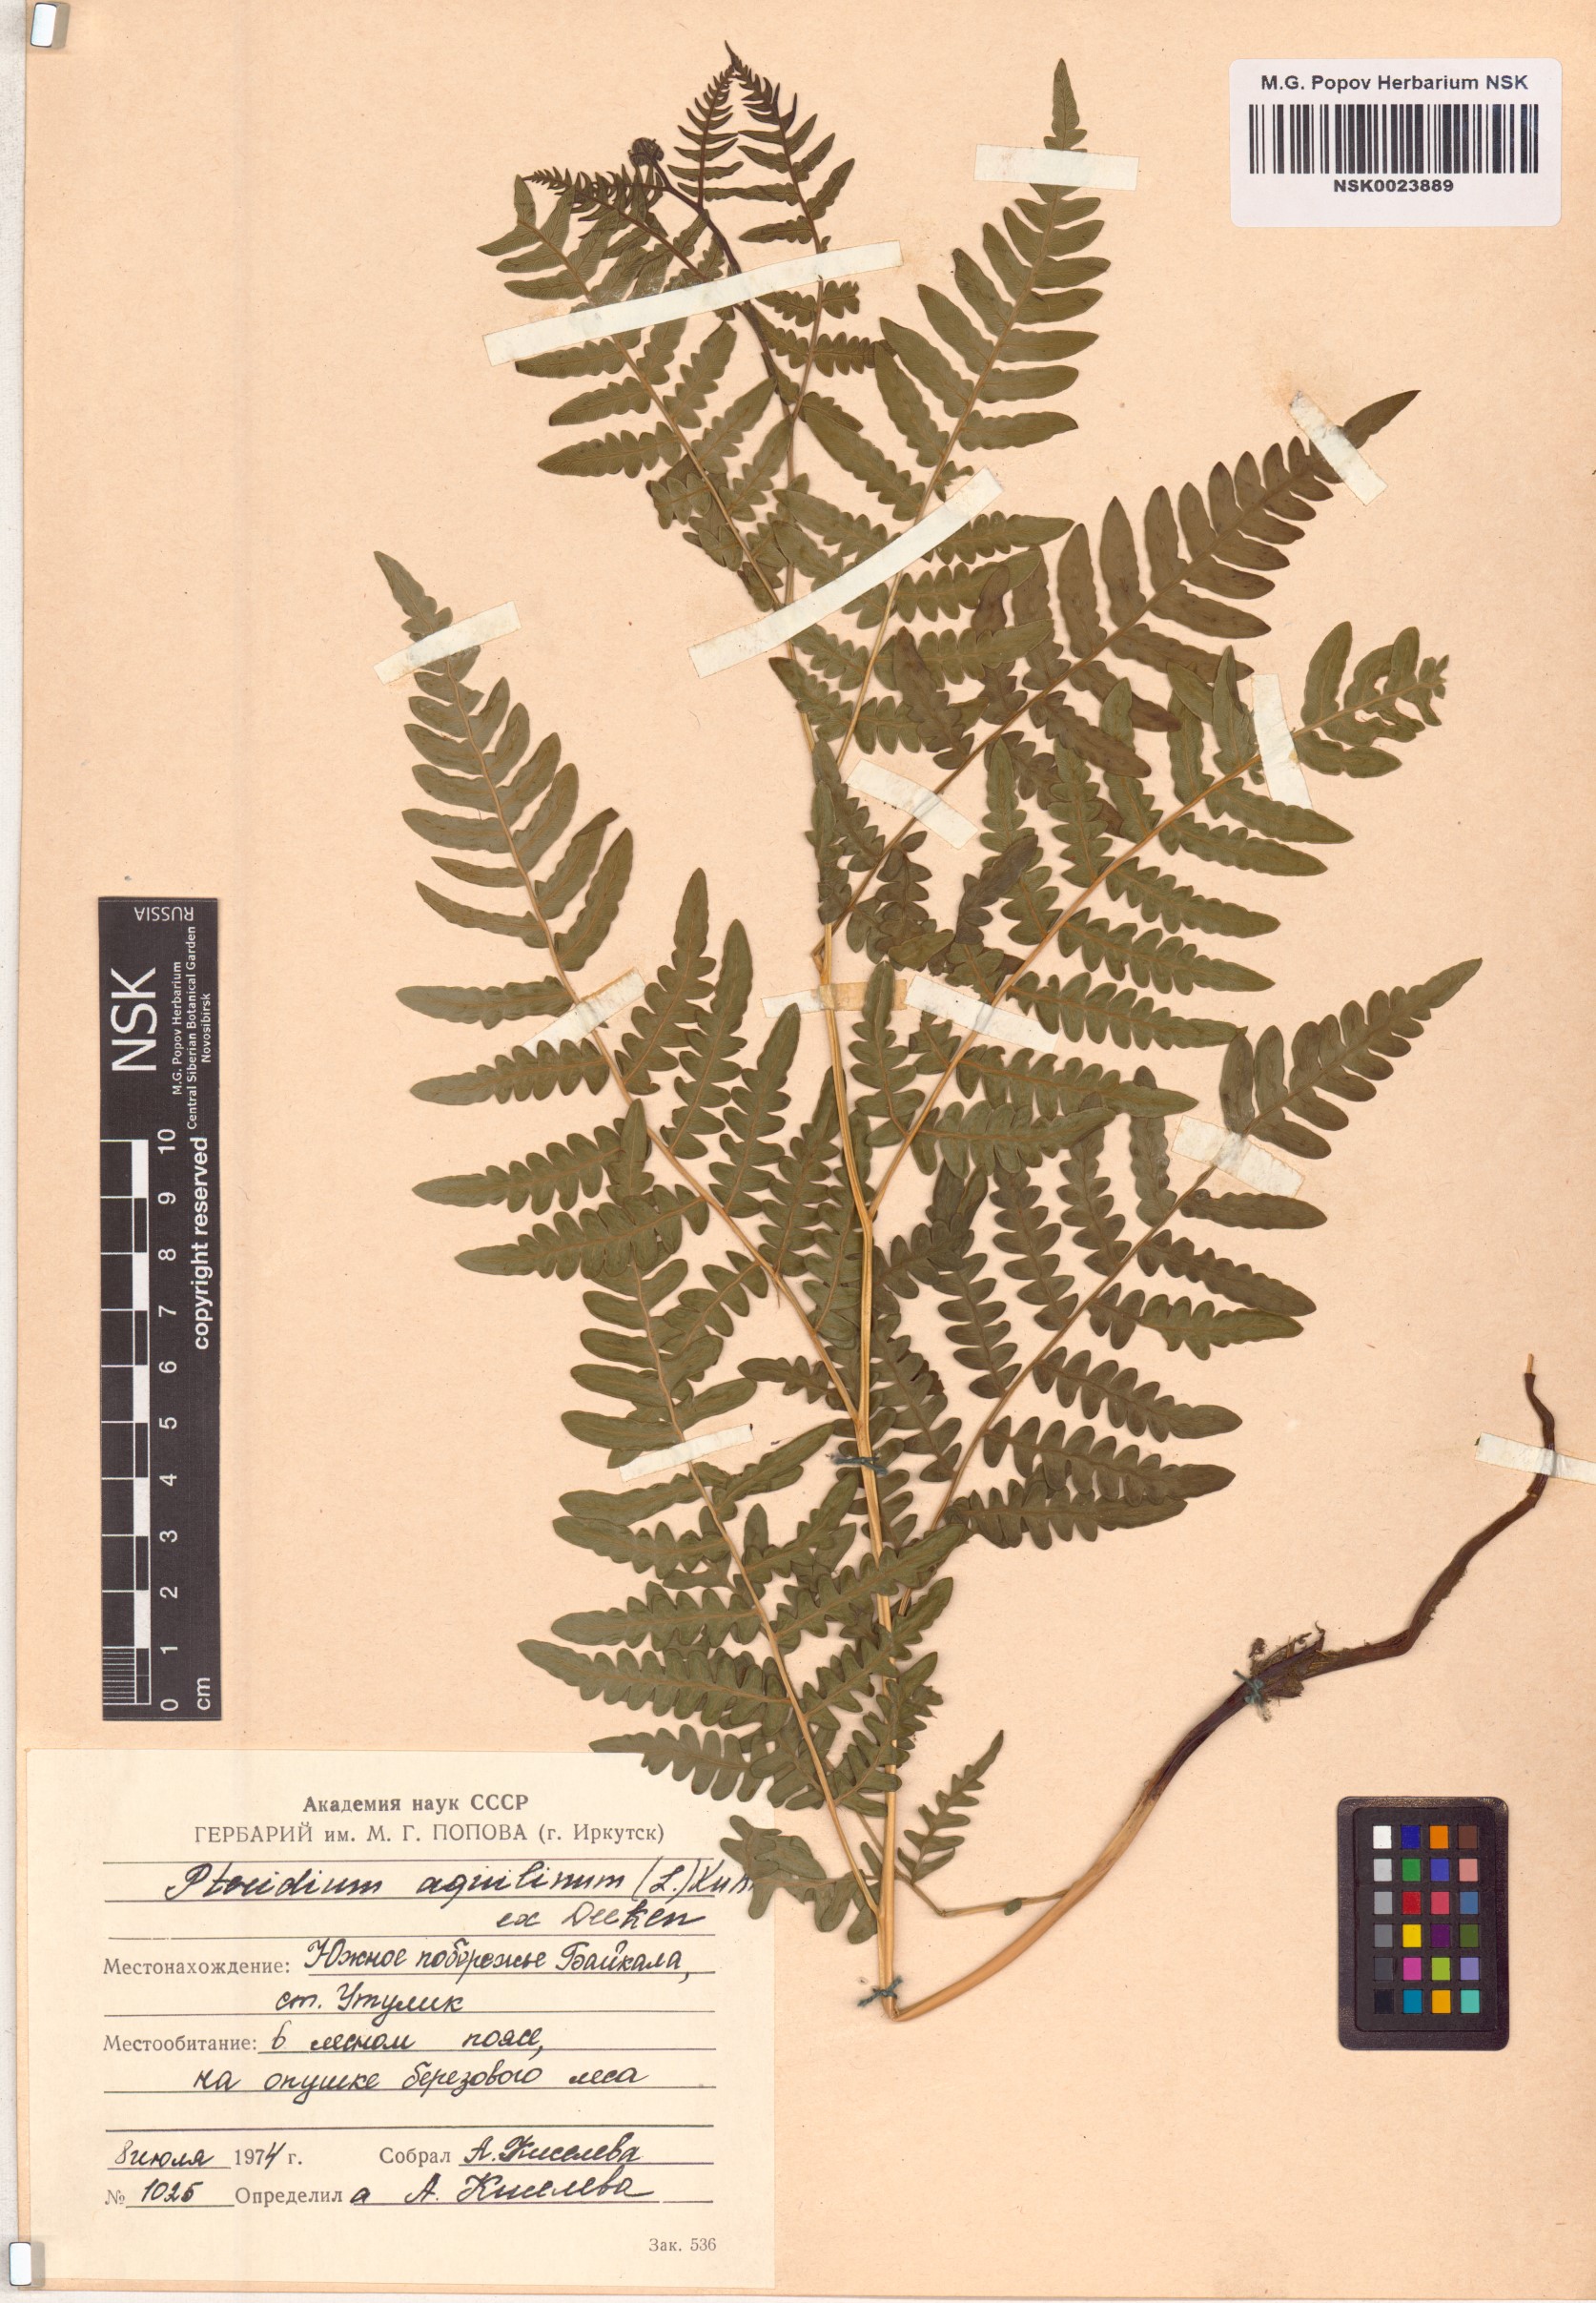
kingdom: Plantae
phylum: Tracheophyta
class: Polypodiopsida
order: Polypodiales
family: Dennstaedtiaceae
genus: Pteridium
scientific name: Pteridium aquilinum
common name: Bracken
